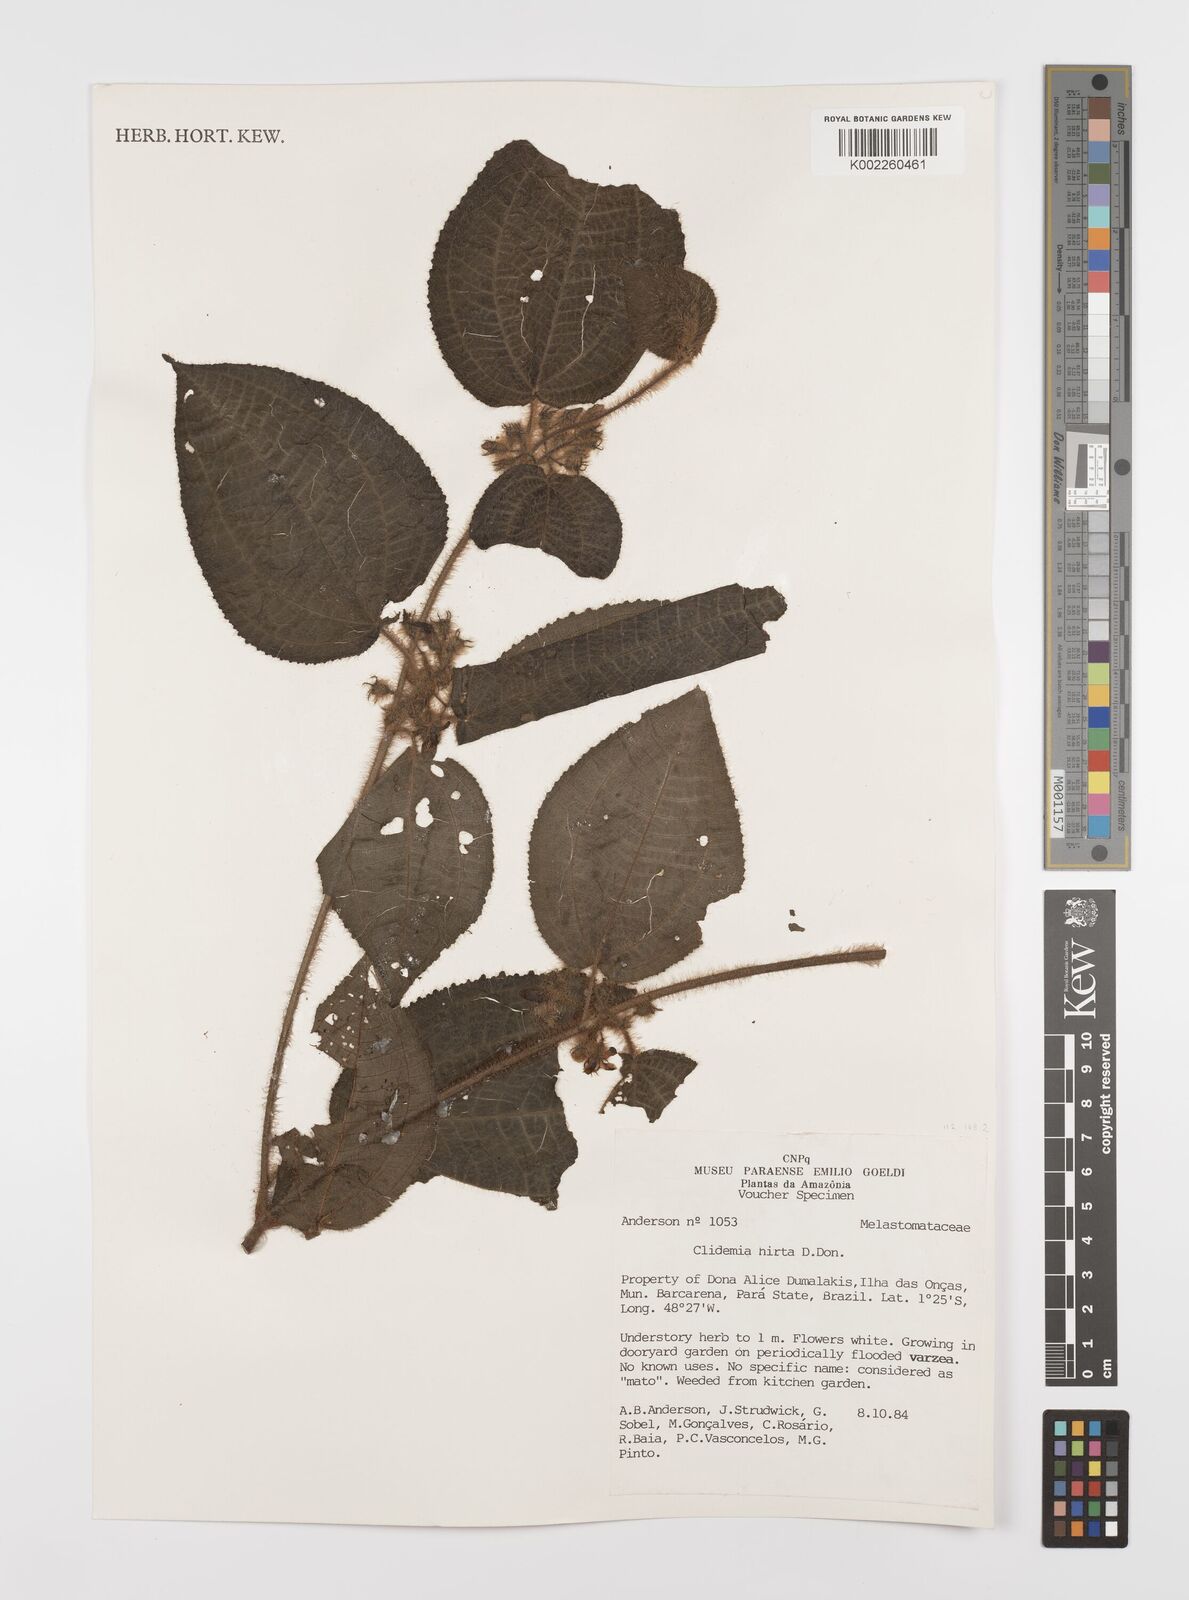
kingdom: Plantae
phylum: Tracheophyta
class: Magnoliopsida
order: Myrtales
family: Melastomataceae
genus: Miconia
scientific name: Miconia crenata
